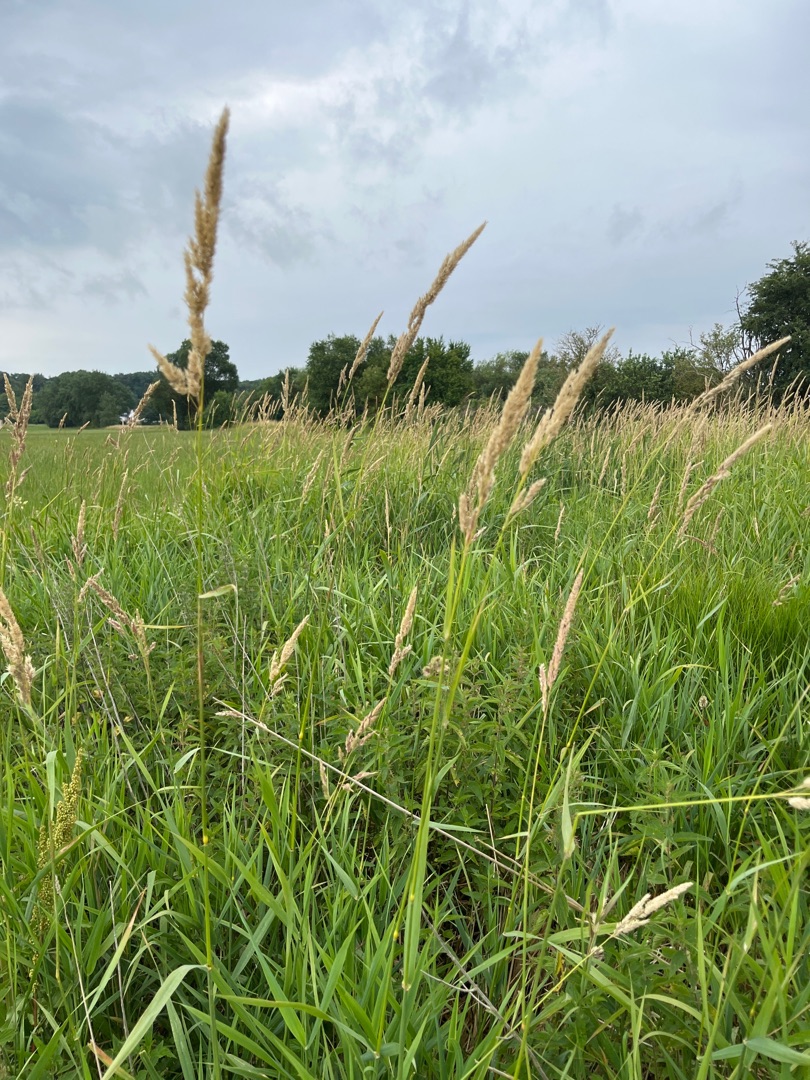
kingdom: Plantae
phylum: Tracheophyta
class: Liliopsida
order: Poales
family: Poaceae
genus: Phalaris
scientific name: Phalaris arundinacea
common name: Rørgræs
